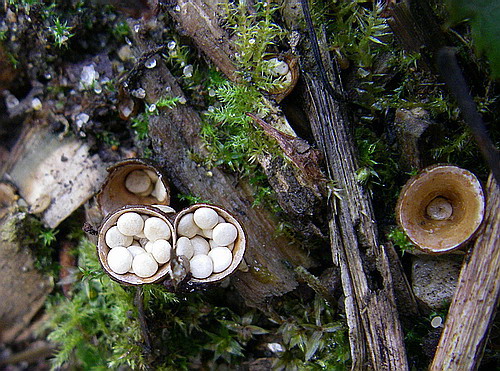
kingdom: Fungi
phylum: Basidiomycota
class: Agaricomycetes
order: Agaricales
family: Nidulariaceae
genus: Crucibulum
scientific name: Crucibulum crucibuliforme
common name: krukkesvamp
